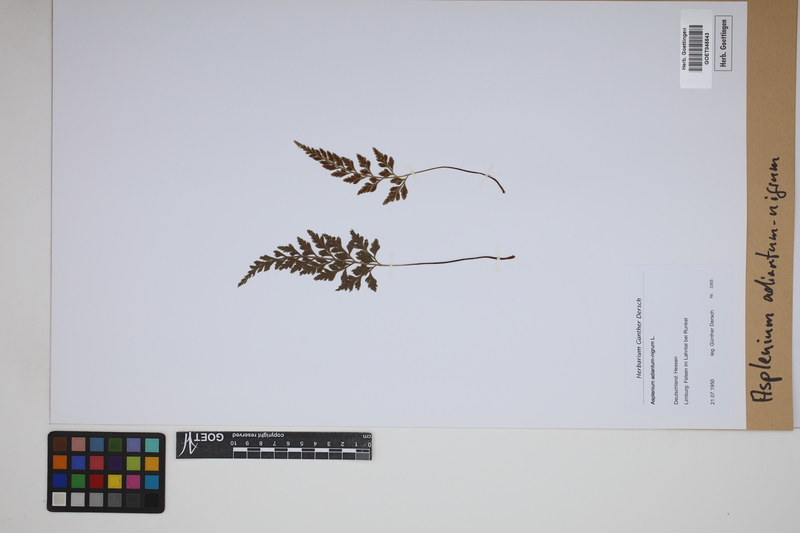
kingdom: Plantae
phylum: Tracheophyta
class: Polypodiopsida
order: Polypodiales
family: Aspleniaceae
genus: Asplenium
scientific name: Asplenium adiantum-nigrum
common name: Black spleenwort
